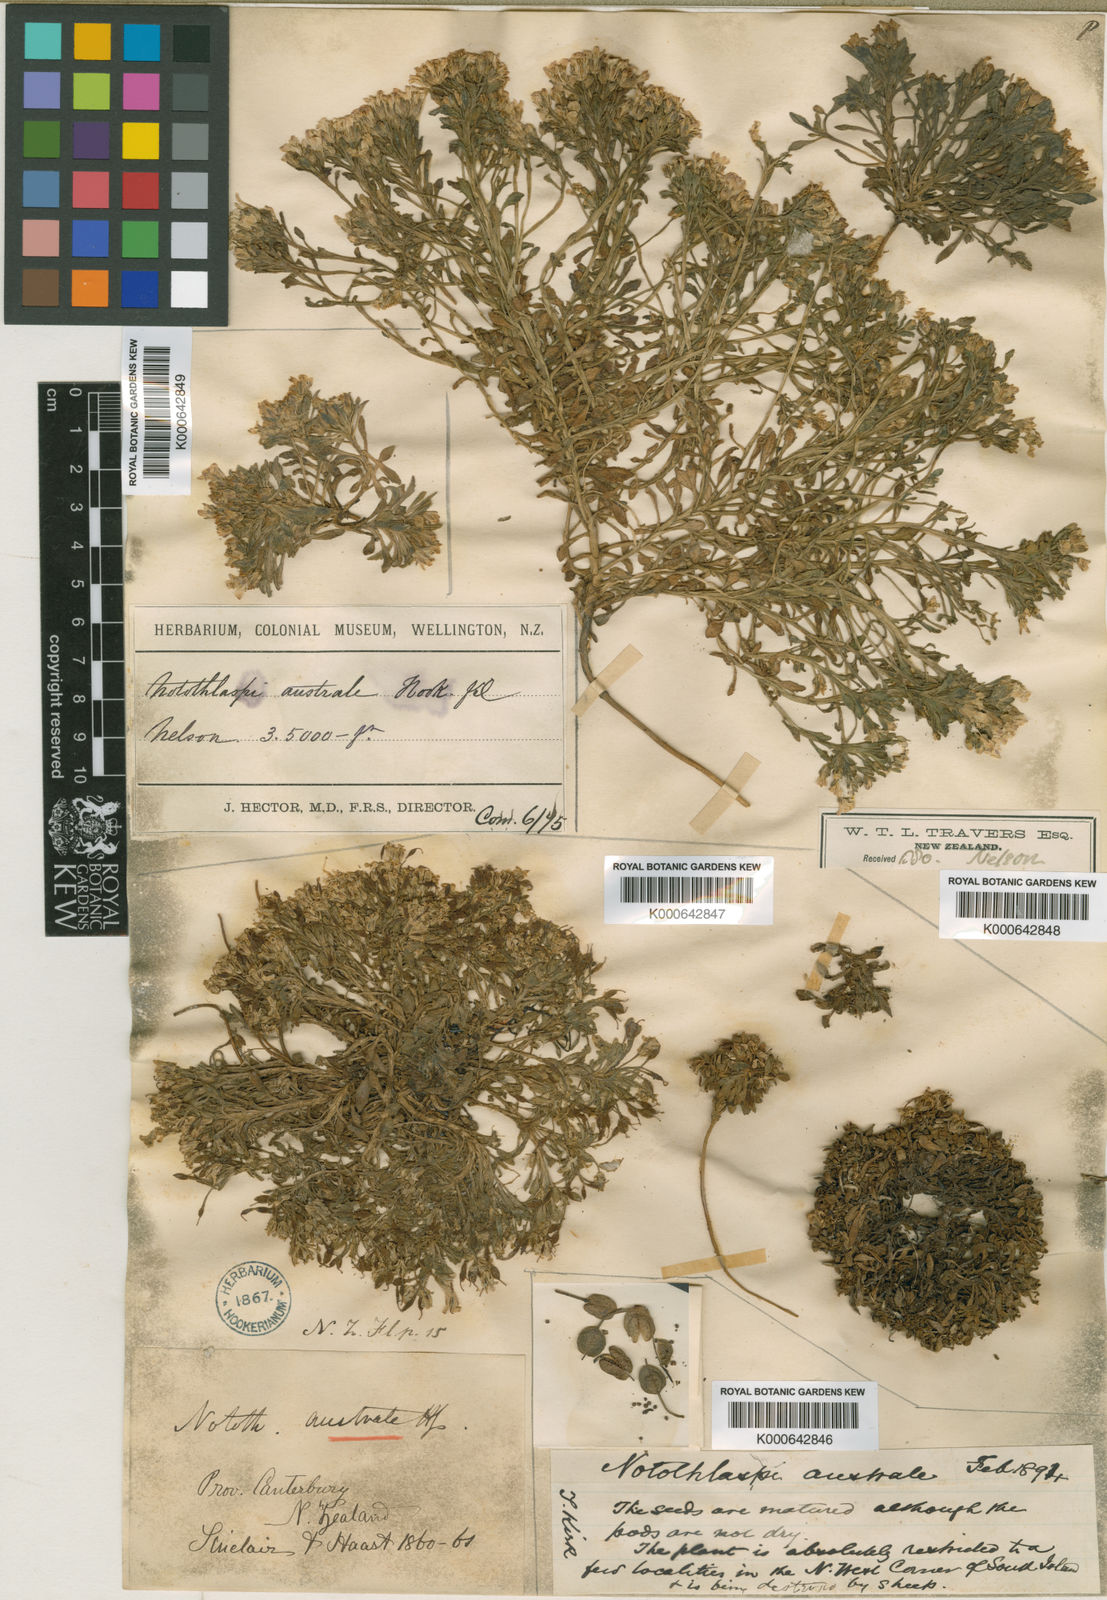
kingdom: Plantae
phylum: Tracheophyta
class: Magnoliopsida
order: Brassicales
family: Brassicaceae
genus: Notothlaspi
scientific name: Notothlaspi australe
